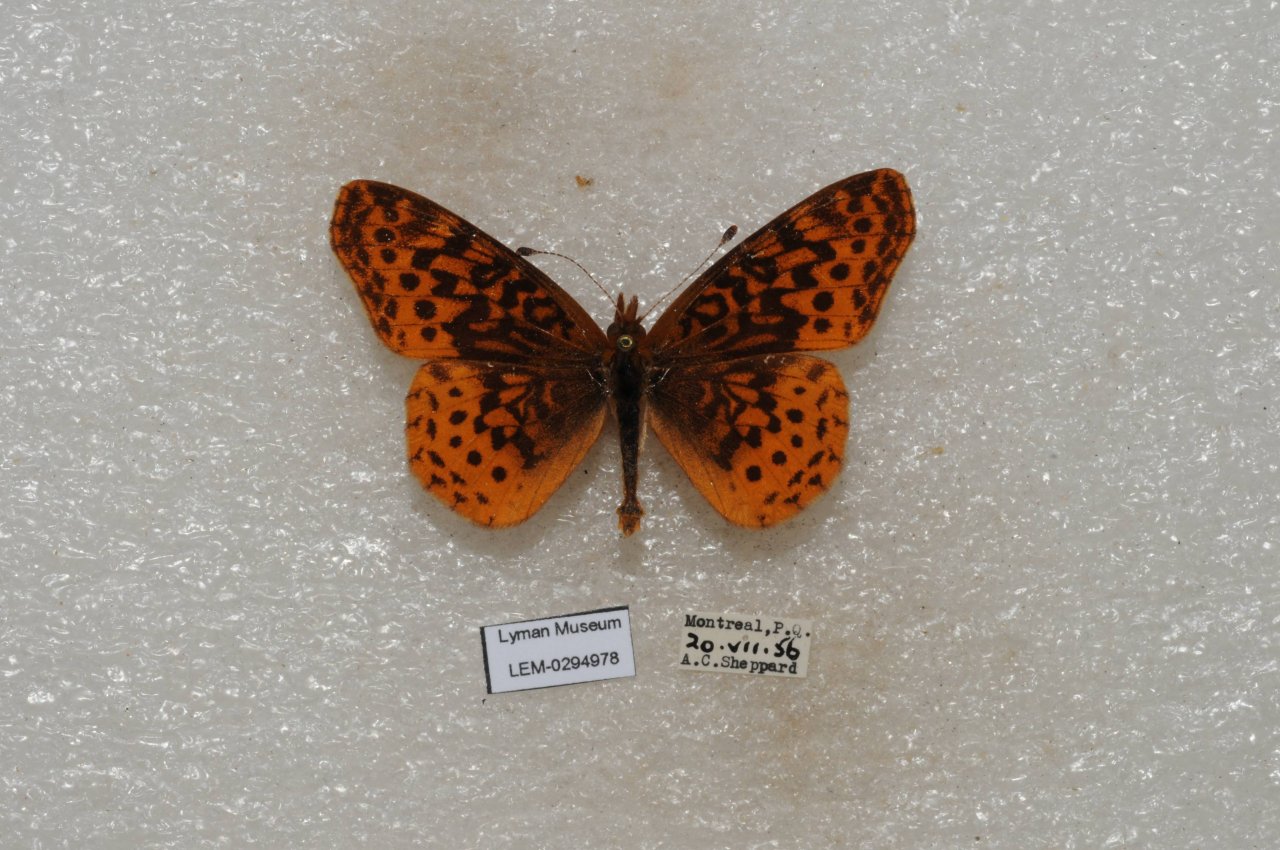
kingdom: Animalia
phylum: Arthropoda
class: Insecta
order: Lepidoptera
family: Nymphalidae
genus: Clossiana
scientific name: Clossiana toddi
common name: Meadow Fritillary
